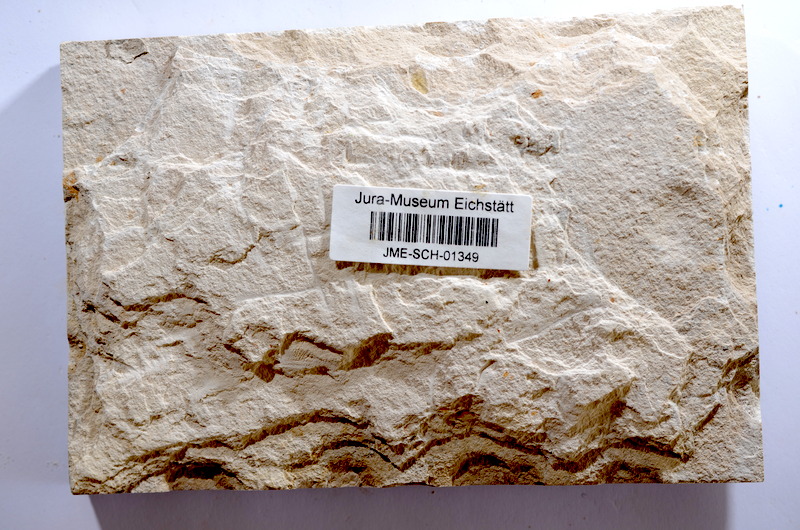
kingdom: Animalia
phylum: Chordata
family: Ascalaboidae
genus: Tharsis
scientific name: Tharsis dubius
